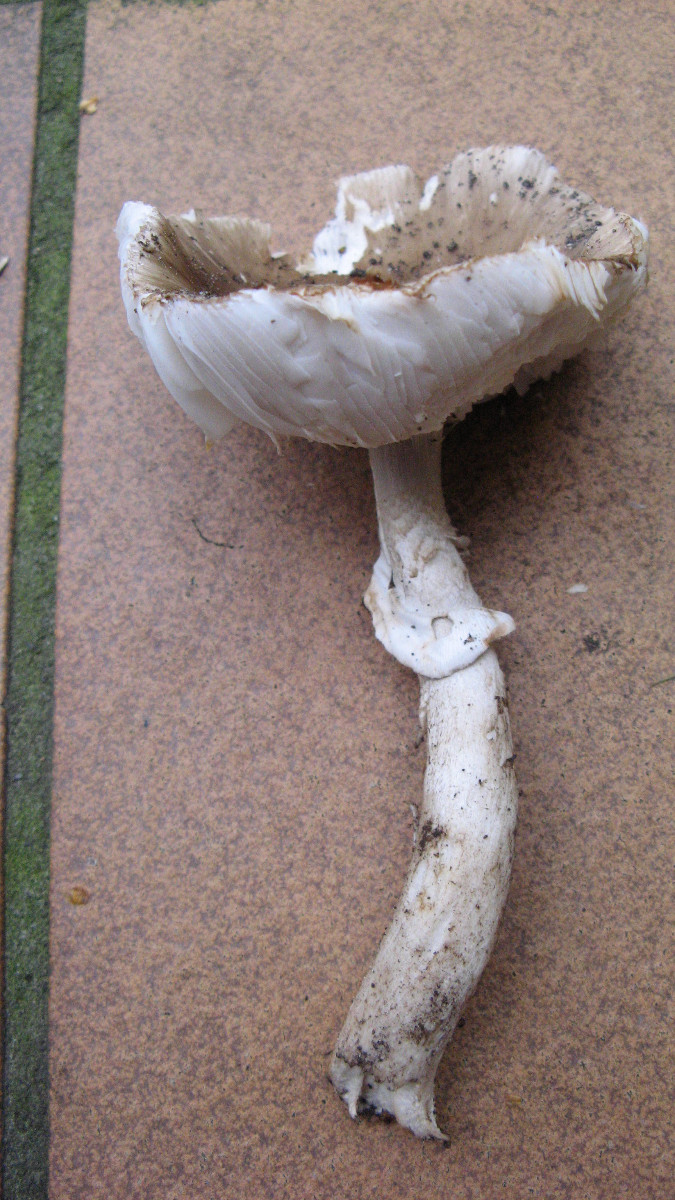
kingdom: Fungi
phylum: Basidiomycota
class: Agaricomycetes
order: Agaricales
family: Amanitaceae
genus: Amanita
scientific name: Amanita
